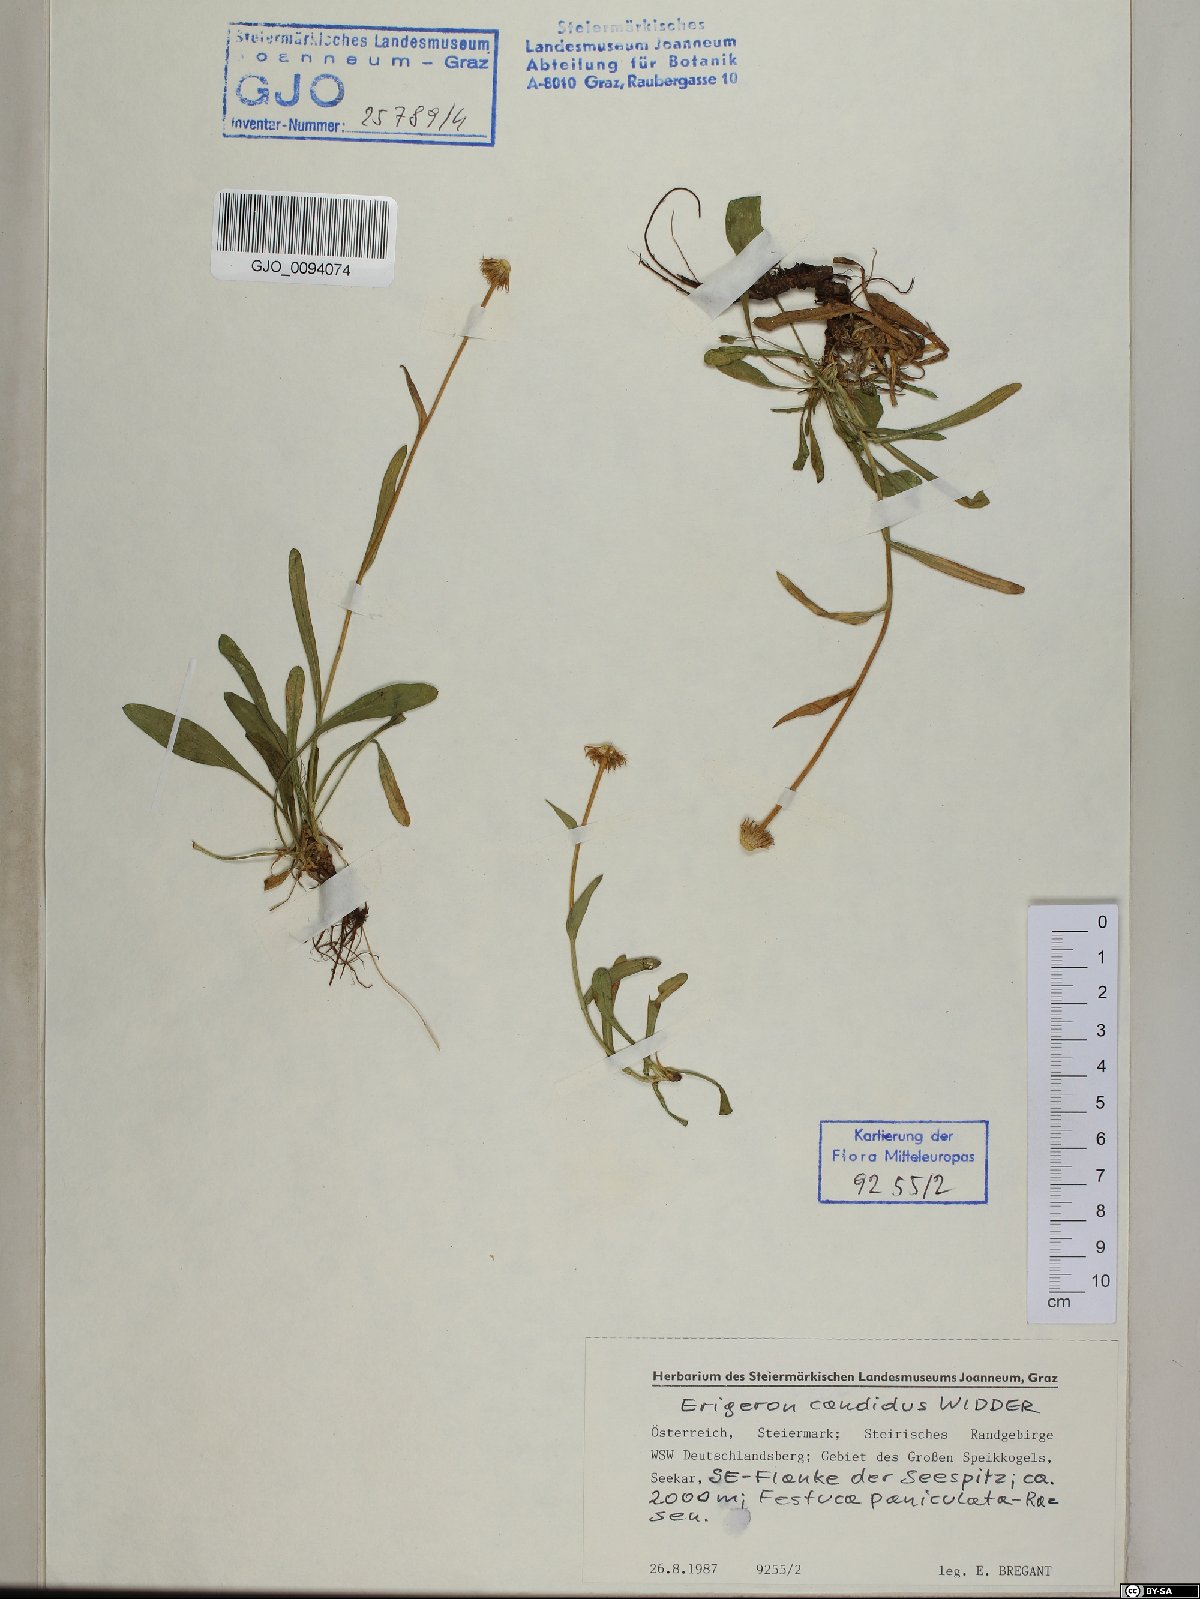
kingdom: Plantae
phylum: Tracheophyta
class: Magnoliopsida
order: Asterales
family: Asteraceae
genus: Erigeron
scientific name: Erigeron glabratus
